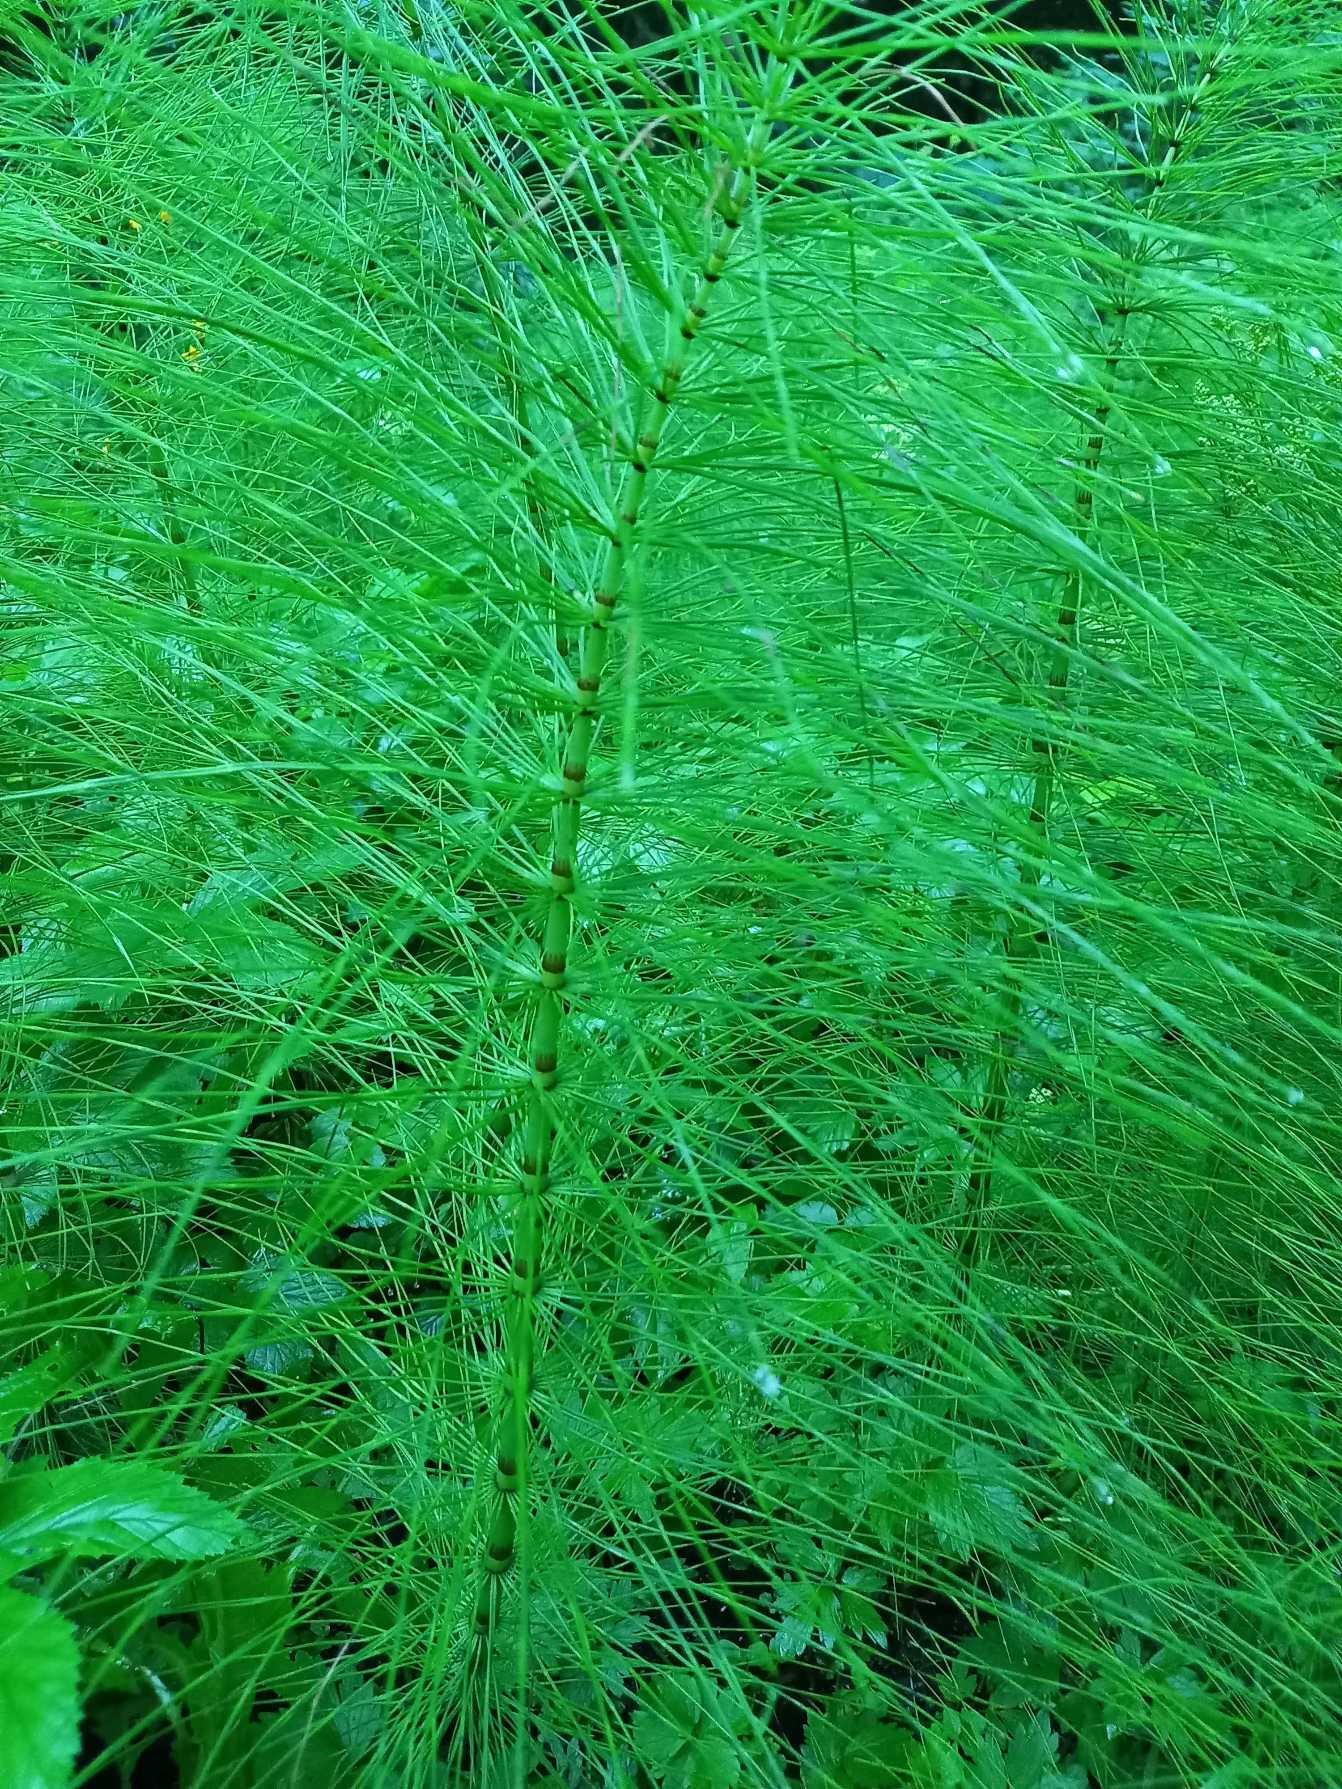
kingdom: Plantae
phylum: Tracheophyta
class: Polypodiopsida
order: Equisetales
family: Equisetaceae
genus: Equisetum
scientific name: Equisetum telmateia
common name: Elfenbens-padderok
